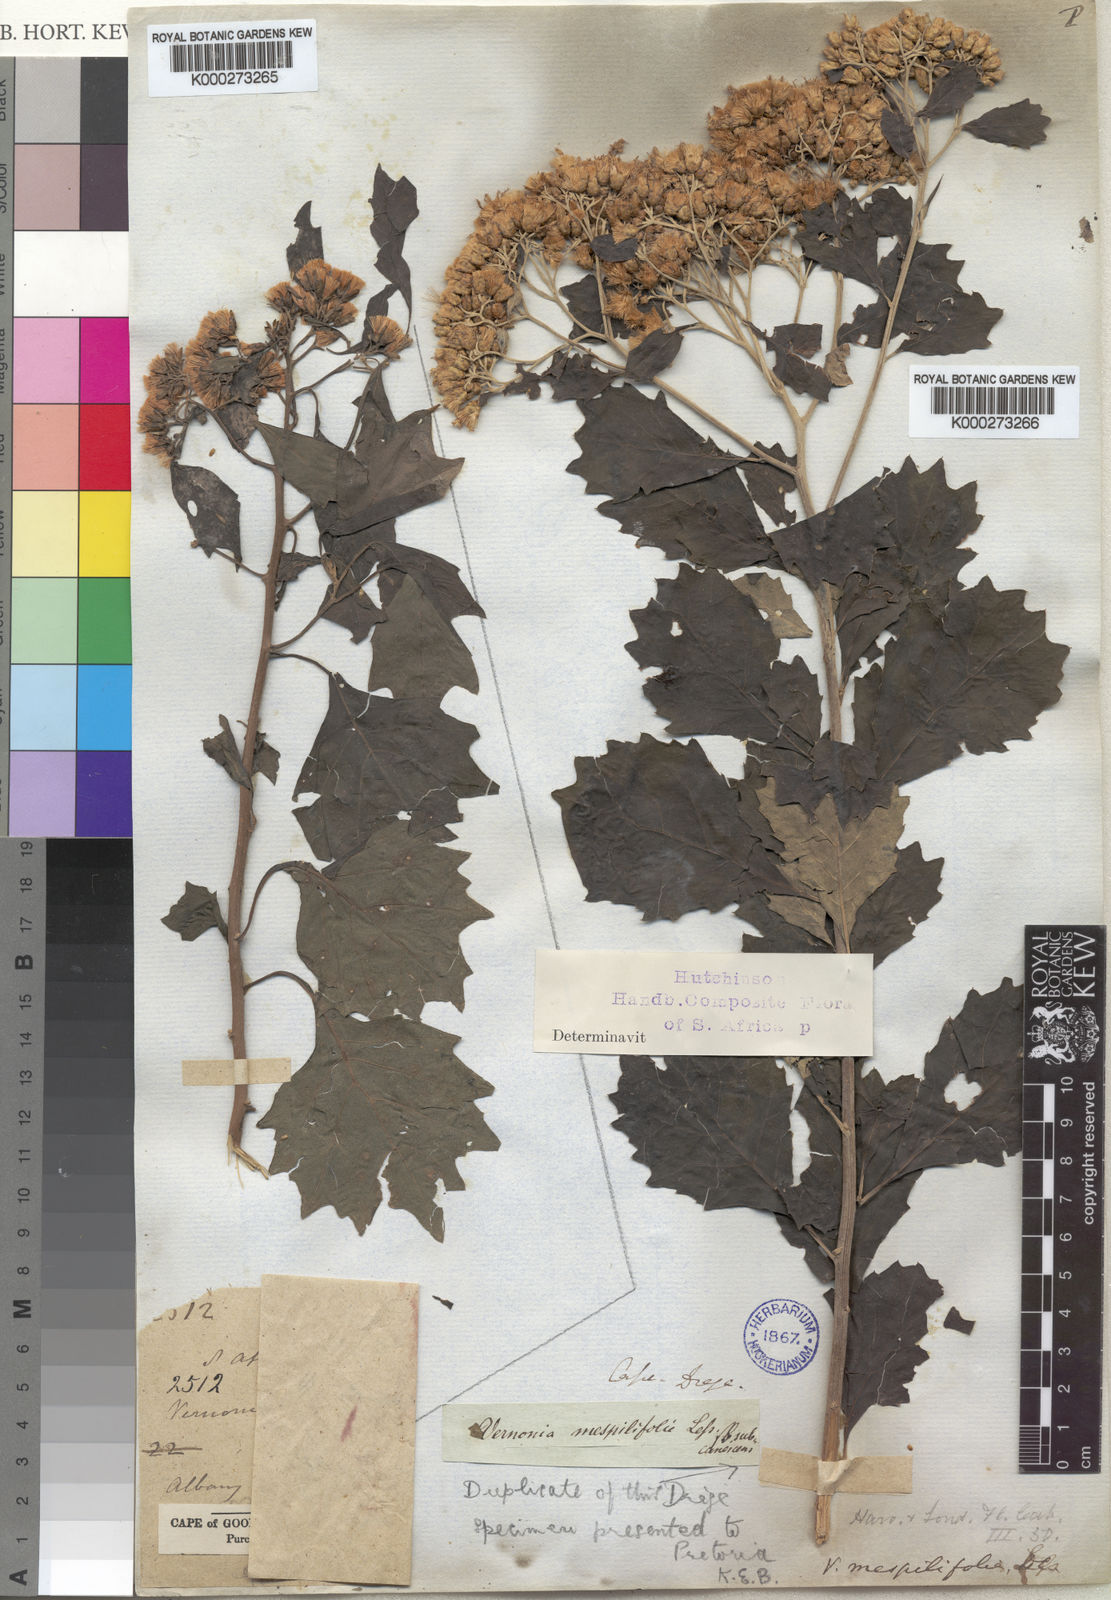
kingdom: Plantae
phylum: Tracheophyta
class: Magnoliopsida
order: Asterales
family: Asteraceae
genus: Gymnanthemum
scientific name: Gymnanthemum capense
